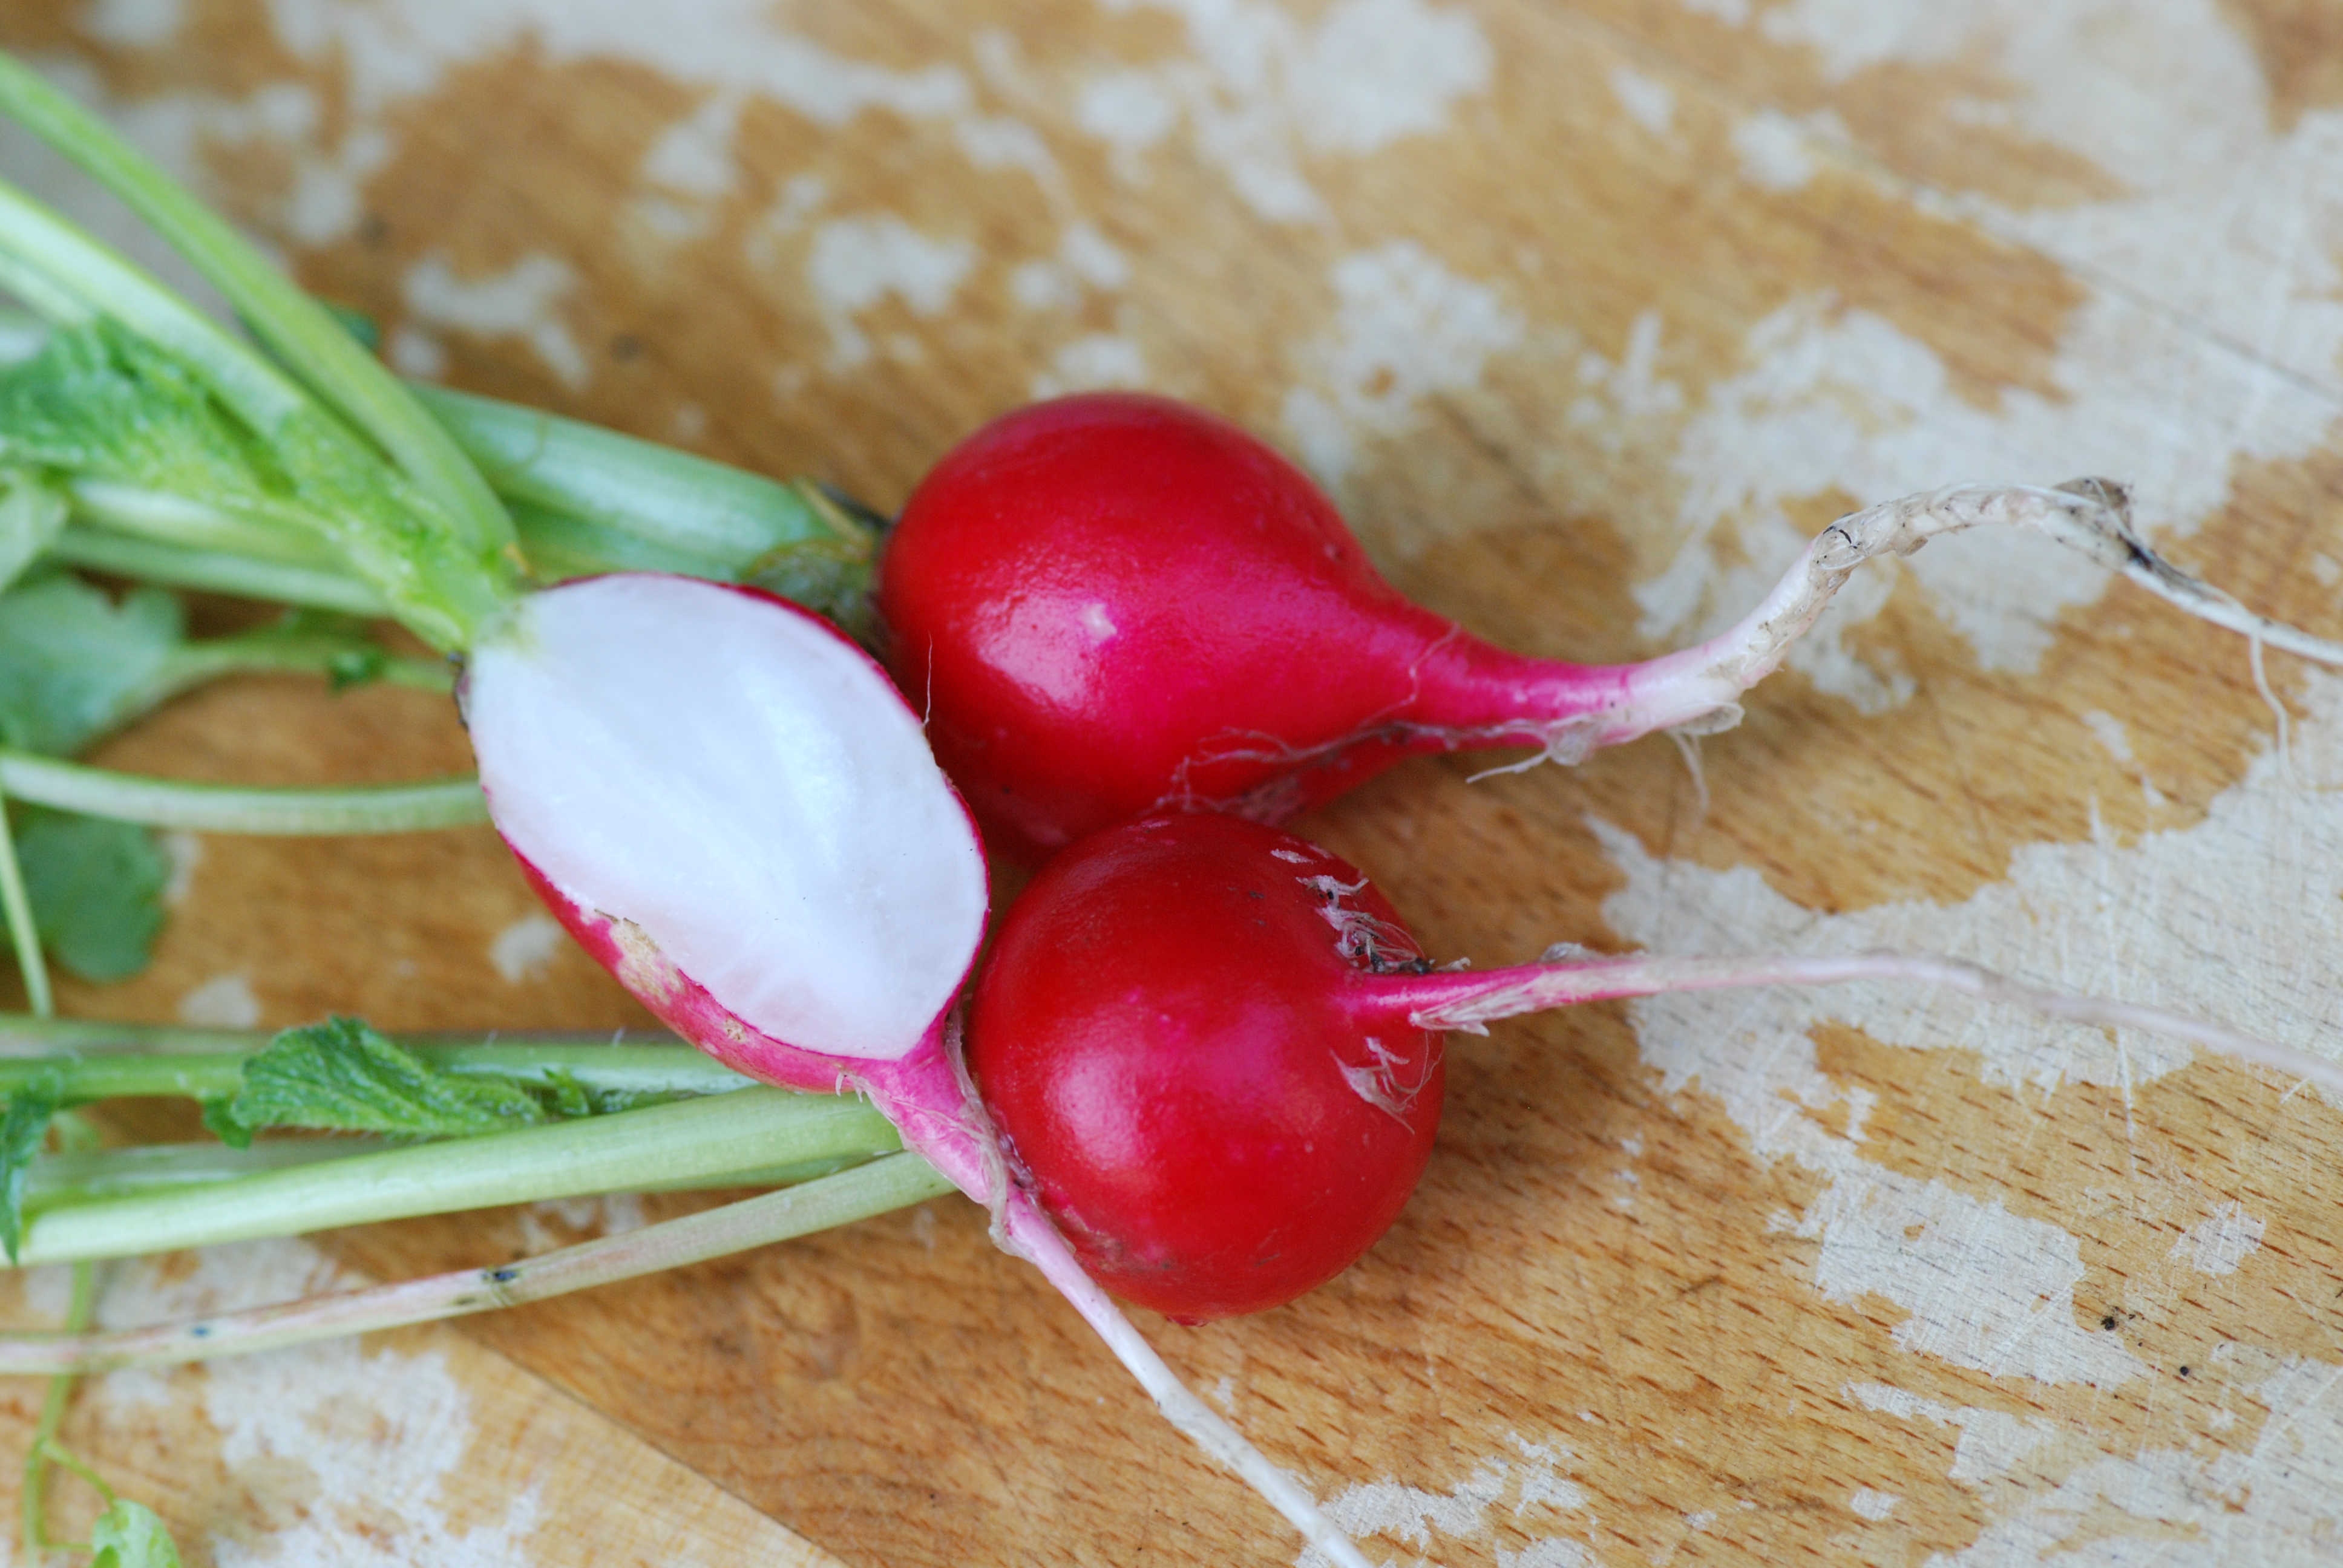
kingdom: Plantae
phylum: Tracheophyta
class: Magnoliopsida
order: Brassicales
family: Brassicaceae
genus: Raphanus
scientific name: Raphanus sativus
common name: Cultivated radish
